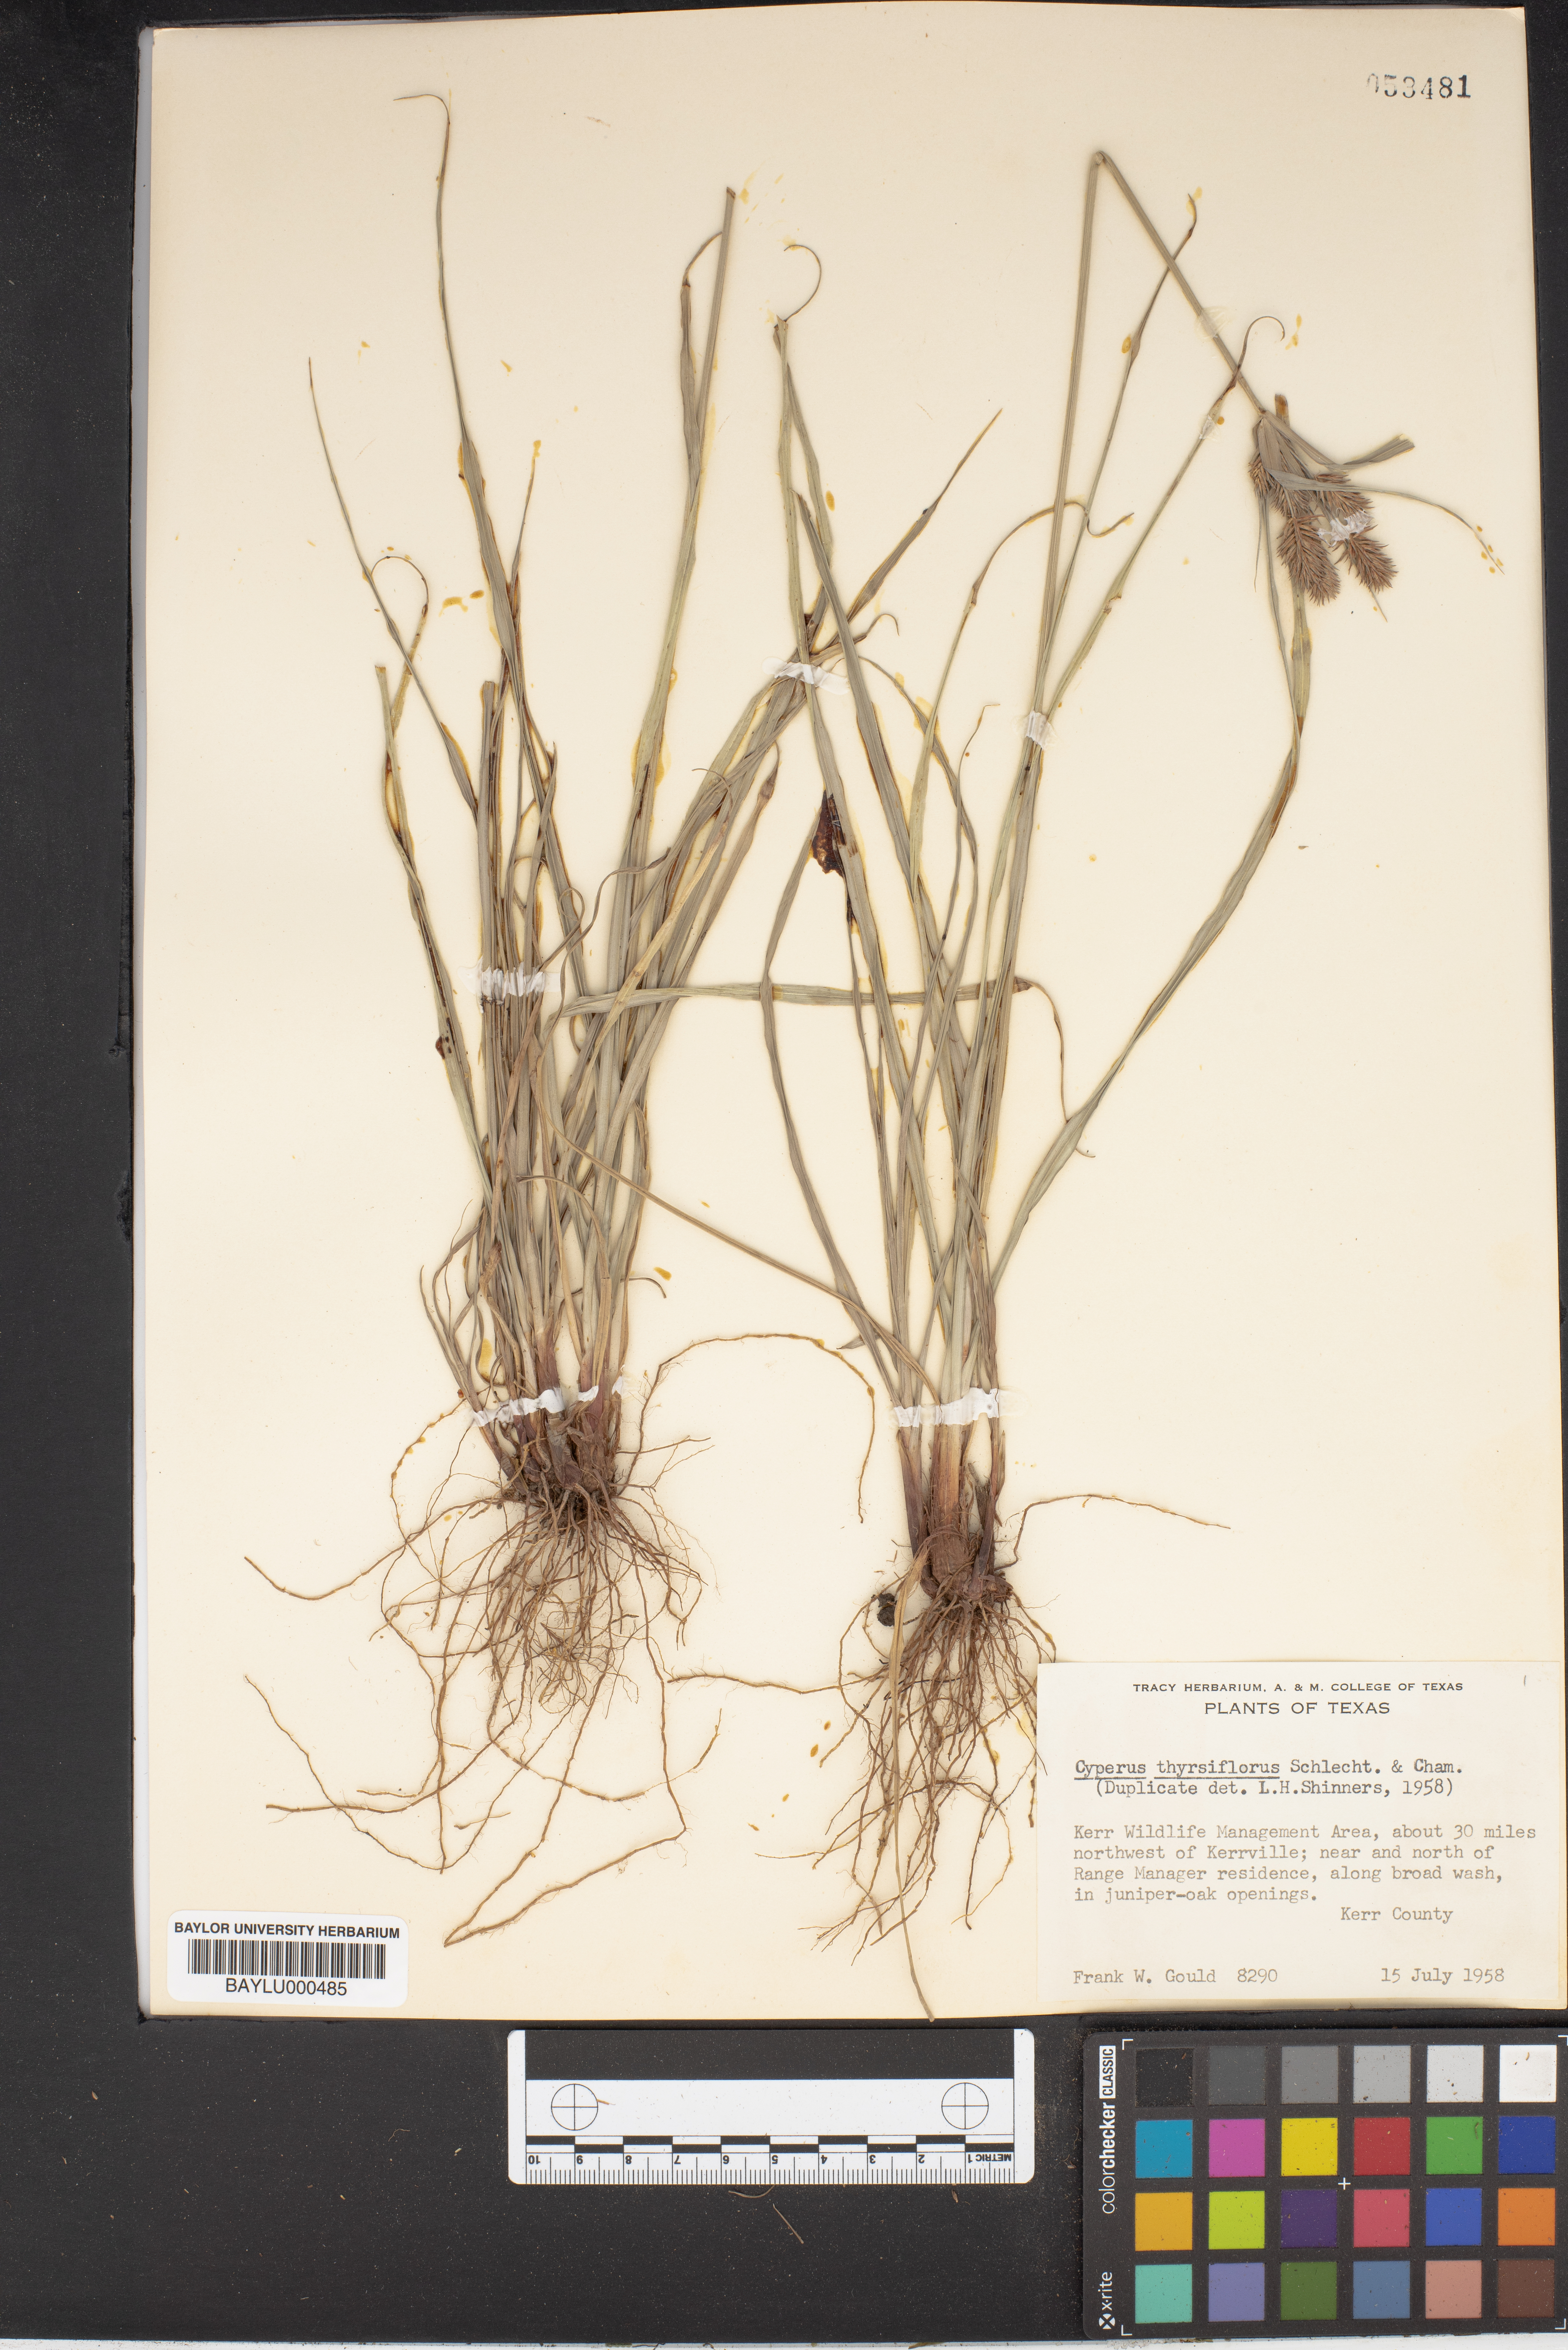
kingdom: Plantae
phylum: Tracheophyta
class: Liliopsida
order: Poales
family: Cyperaceae
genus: Cyperus
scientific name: Cyperus thyrsiflorus
